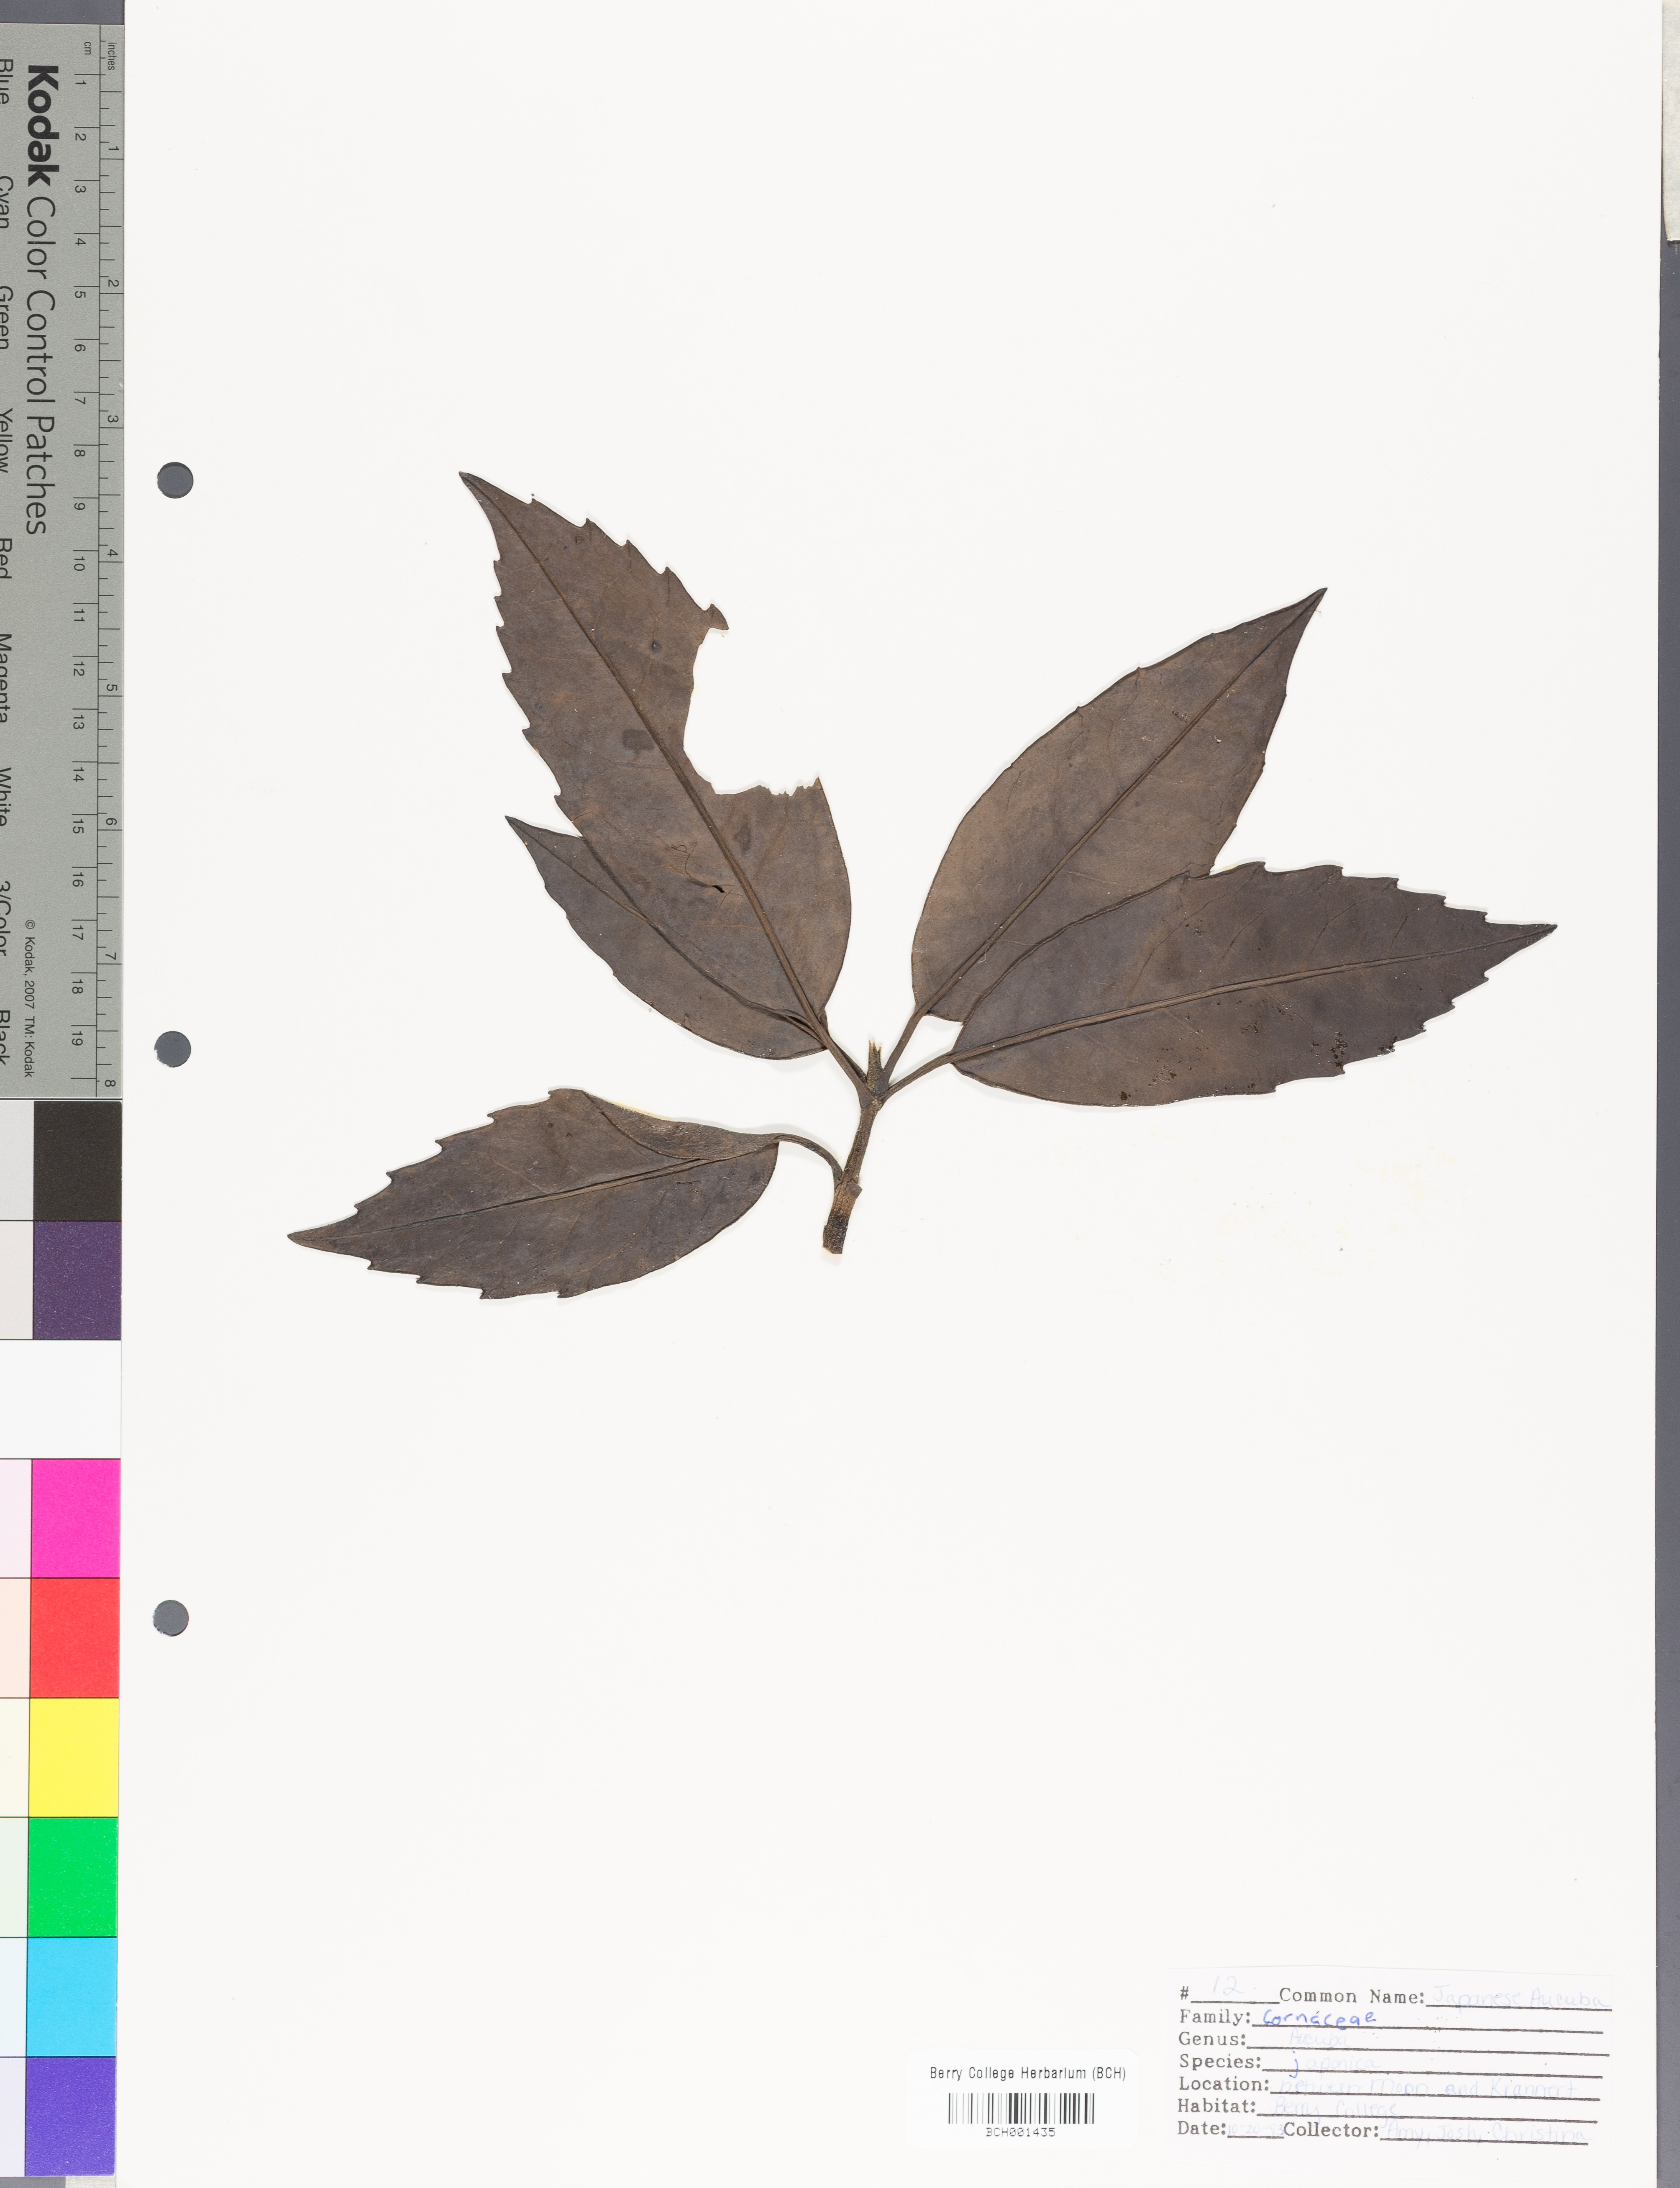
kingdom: Plantae
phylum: Tracheophyta
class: Magnoliopsida
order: Garryales
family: Garryaceae
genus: Aucuba
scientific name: Aucuba japonica
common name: Spotted-laurel
